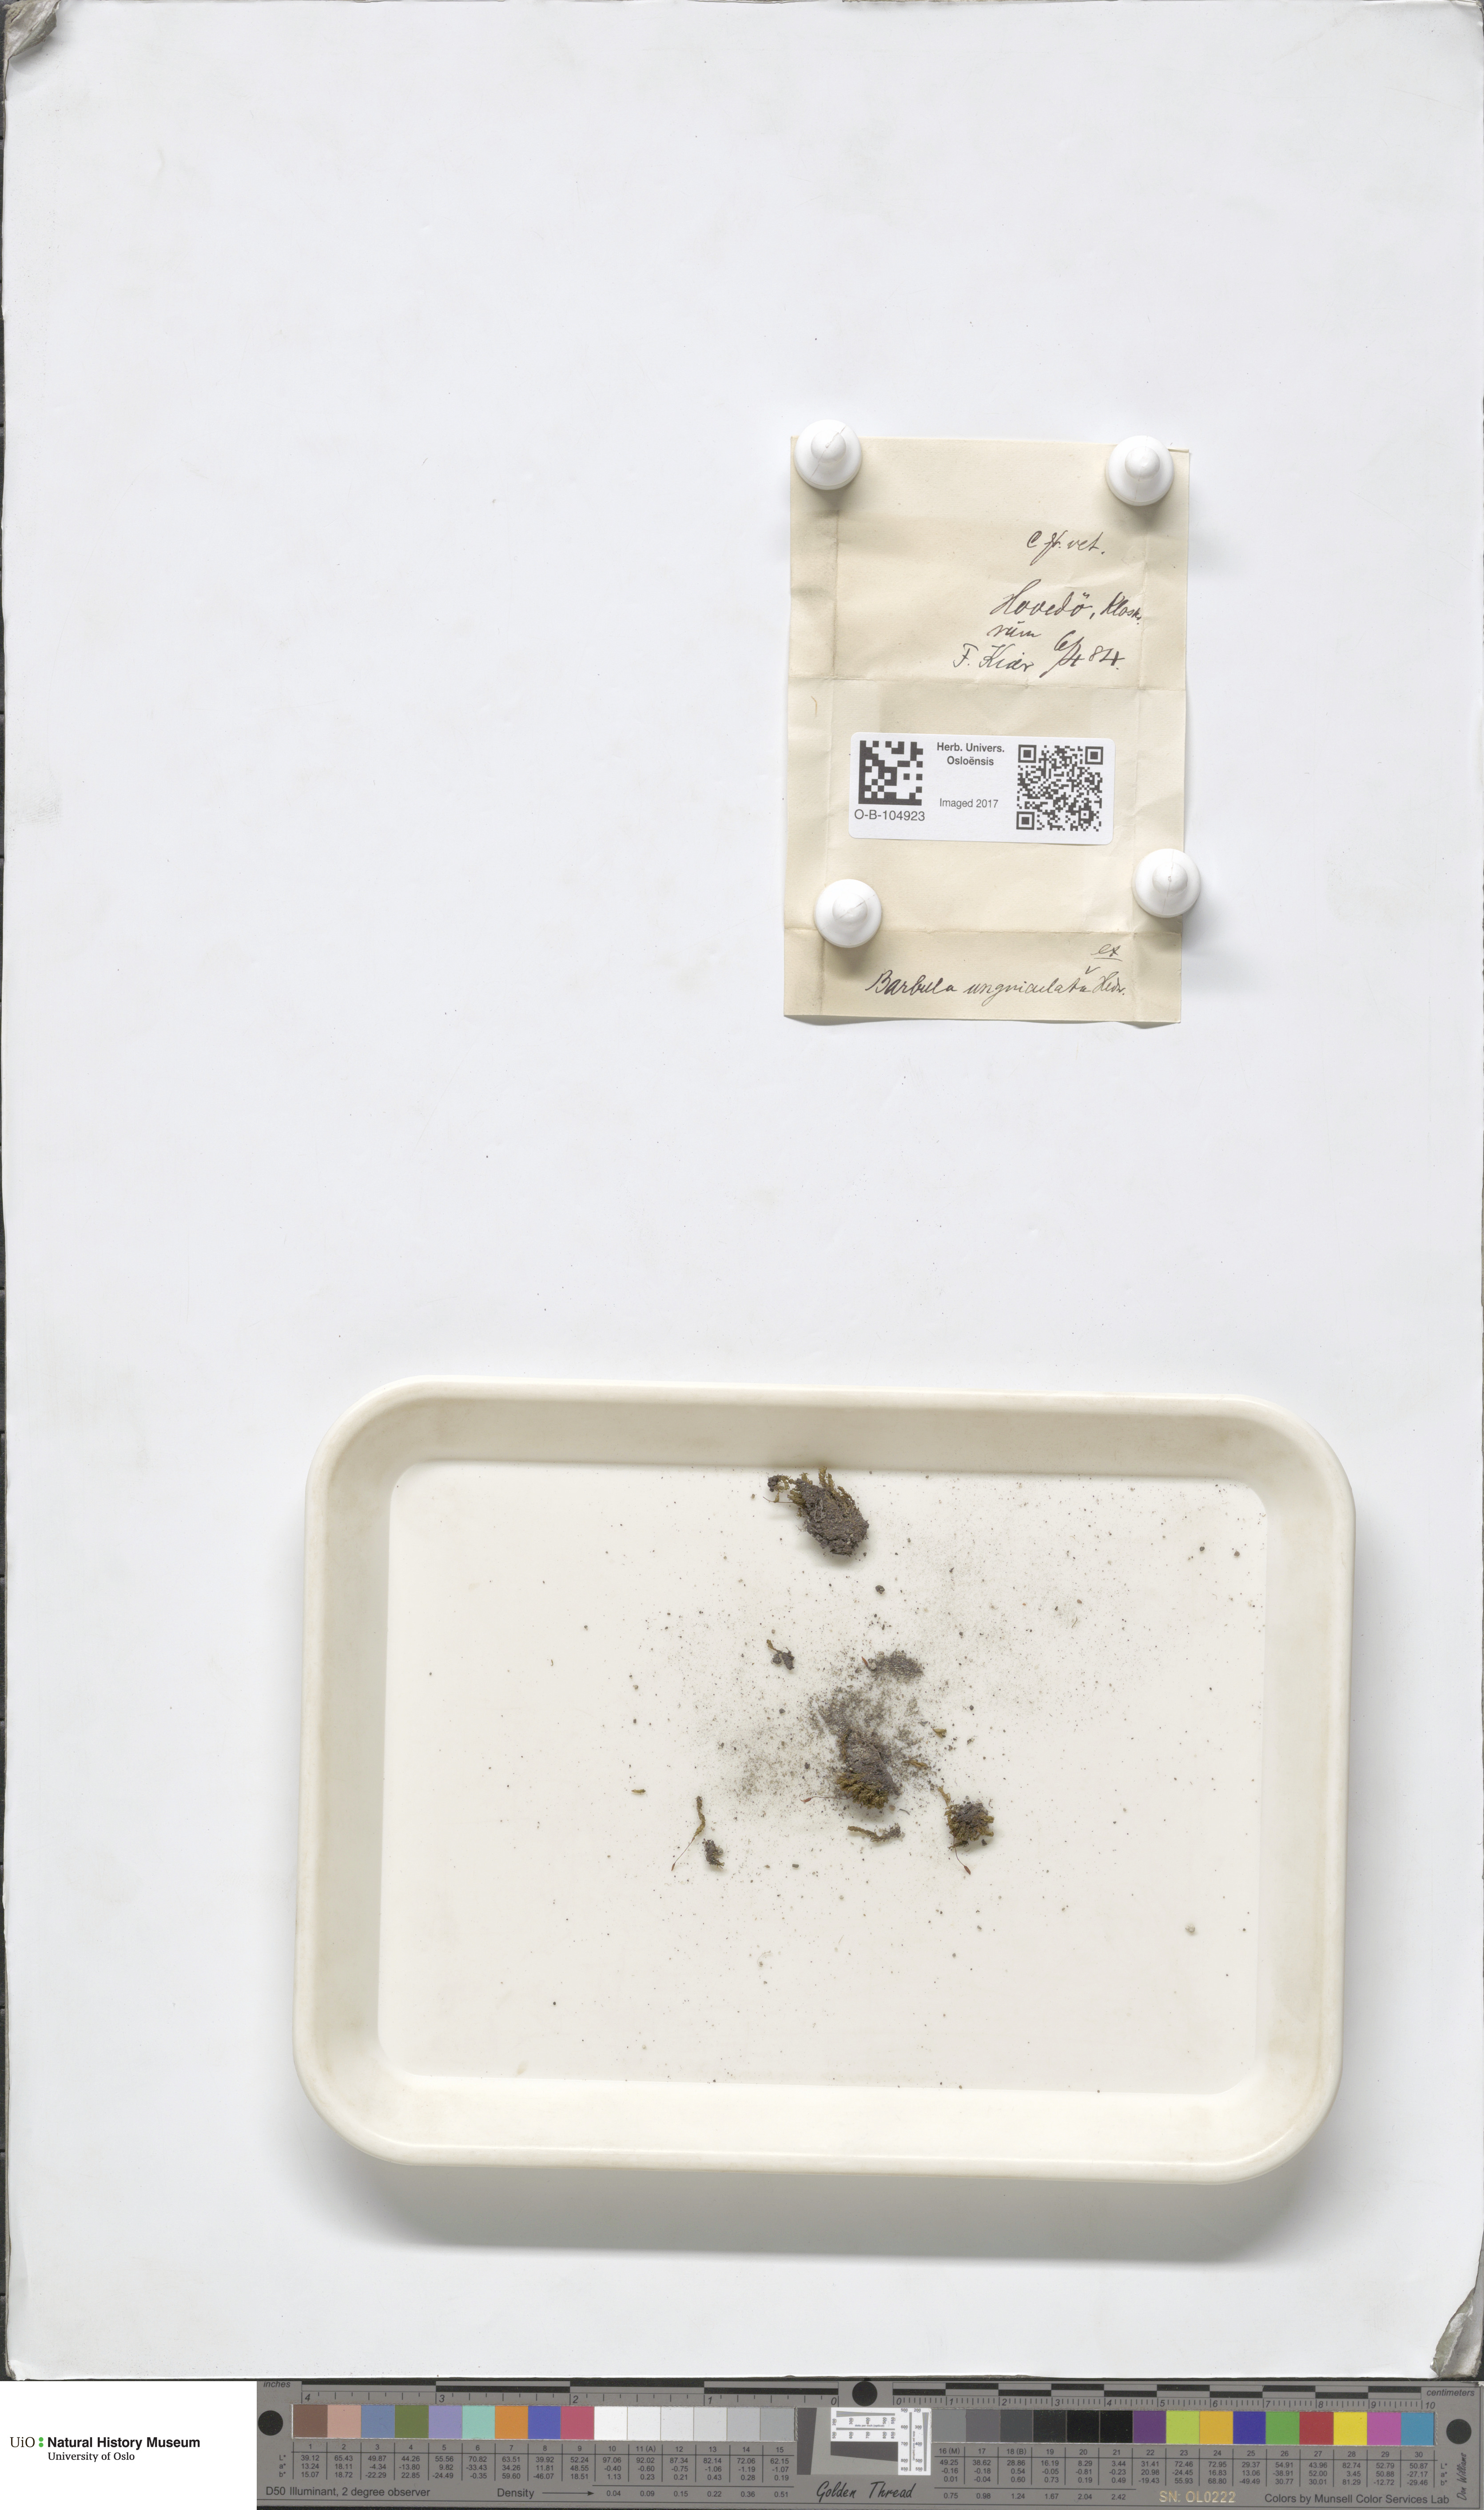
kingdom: Plantae
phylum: Bryophyta
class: Bryopsida
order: Pottiales
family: Pottiaceae
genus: Barbula
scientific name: Barbula unguiculata
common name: Prickly beard moss
